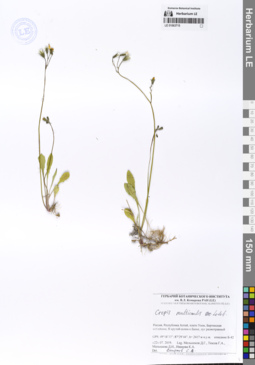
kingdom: Plantae
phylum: Tracheophyta
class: Magnoliopsida
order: Asterales
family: Asteraceae
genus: Crepis
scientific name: Crepis multicaulis
